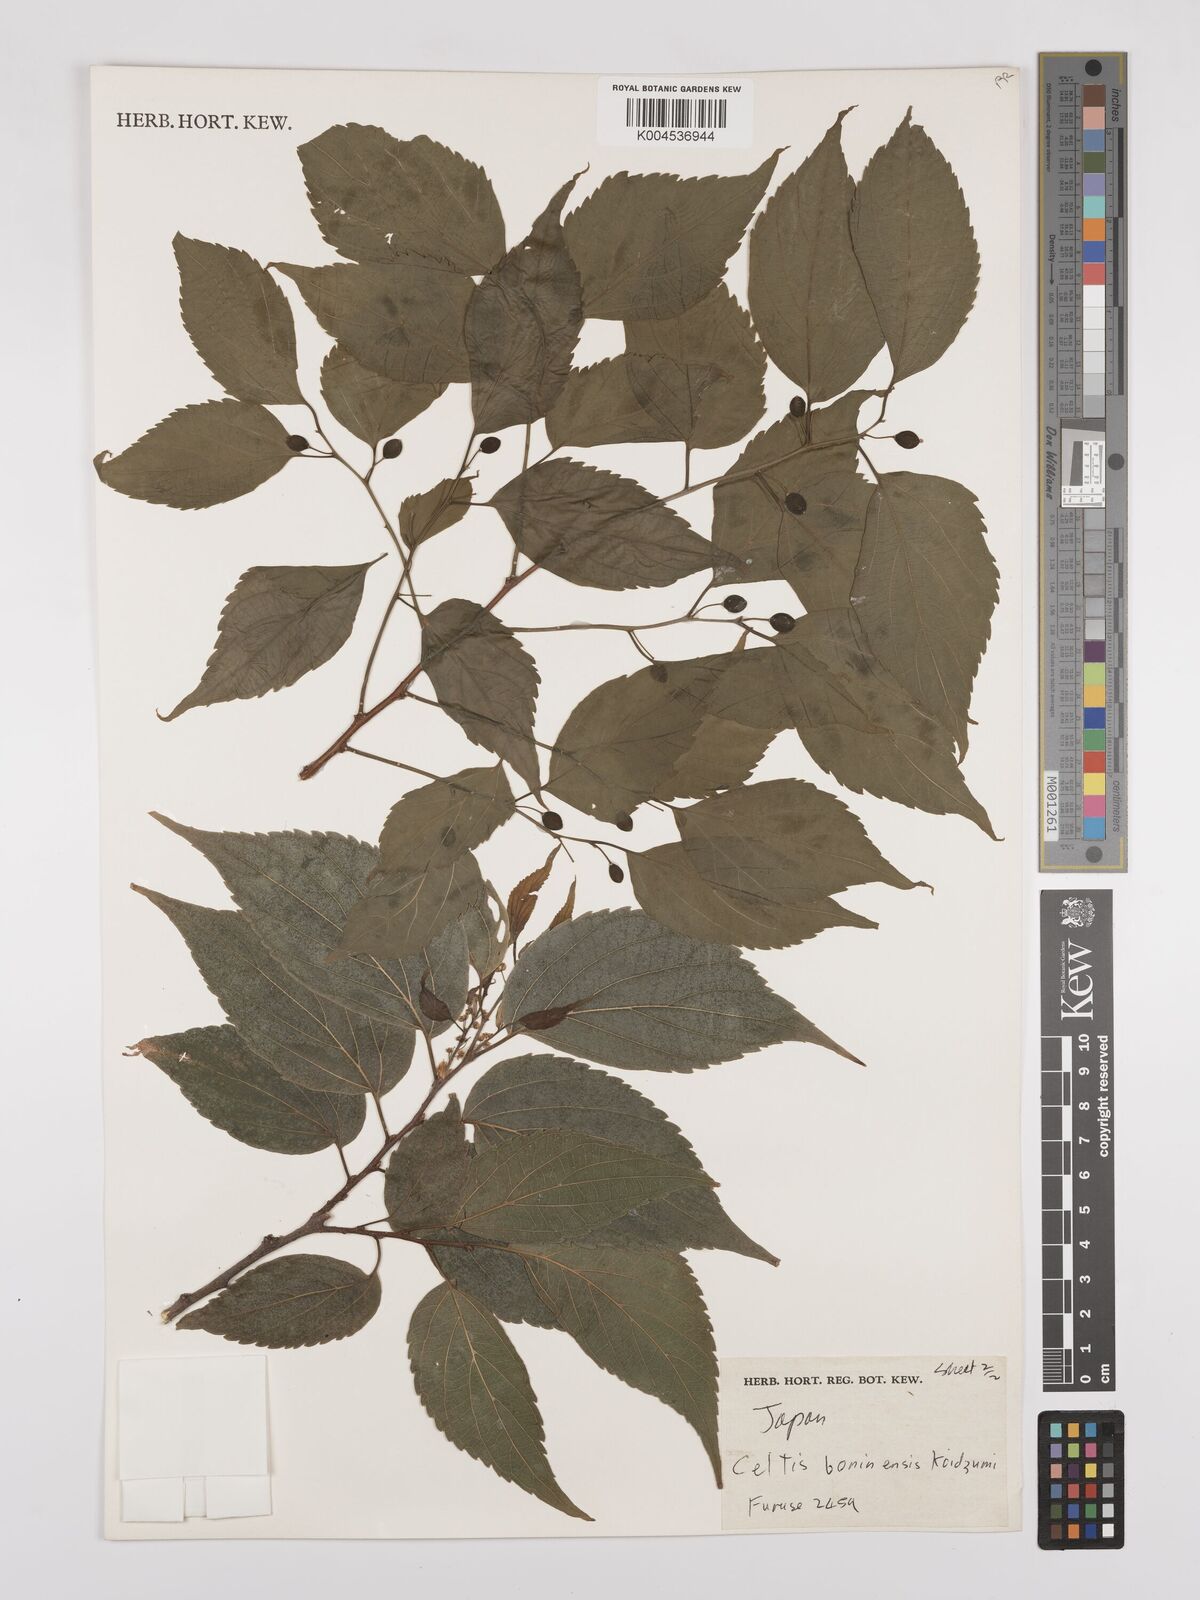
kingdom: Plantae
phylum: Tracheophyta
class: Magnoliopsida
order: Rosales
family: Cannabaceae
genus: Celtis
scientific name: Celtis boninensis
